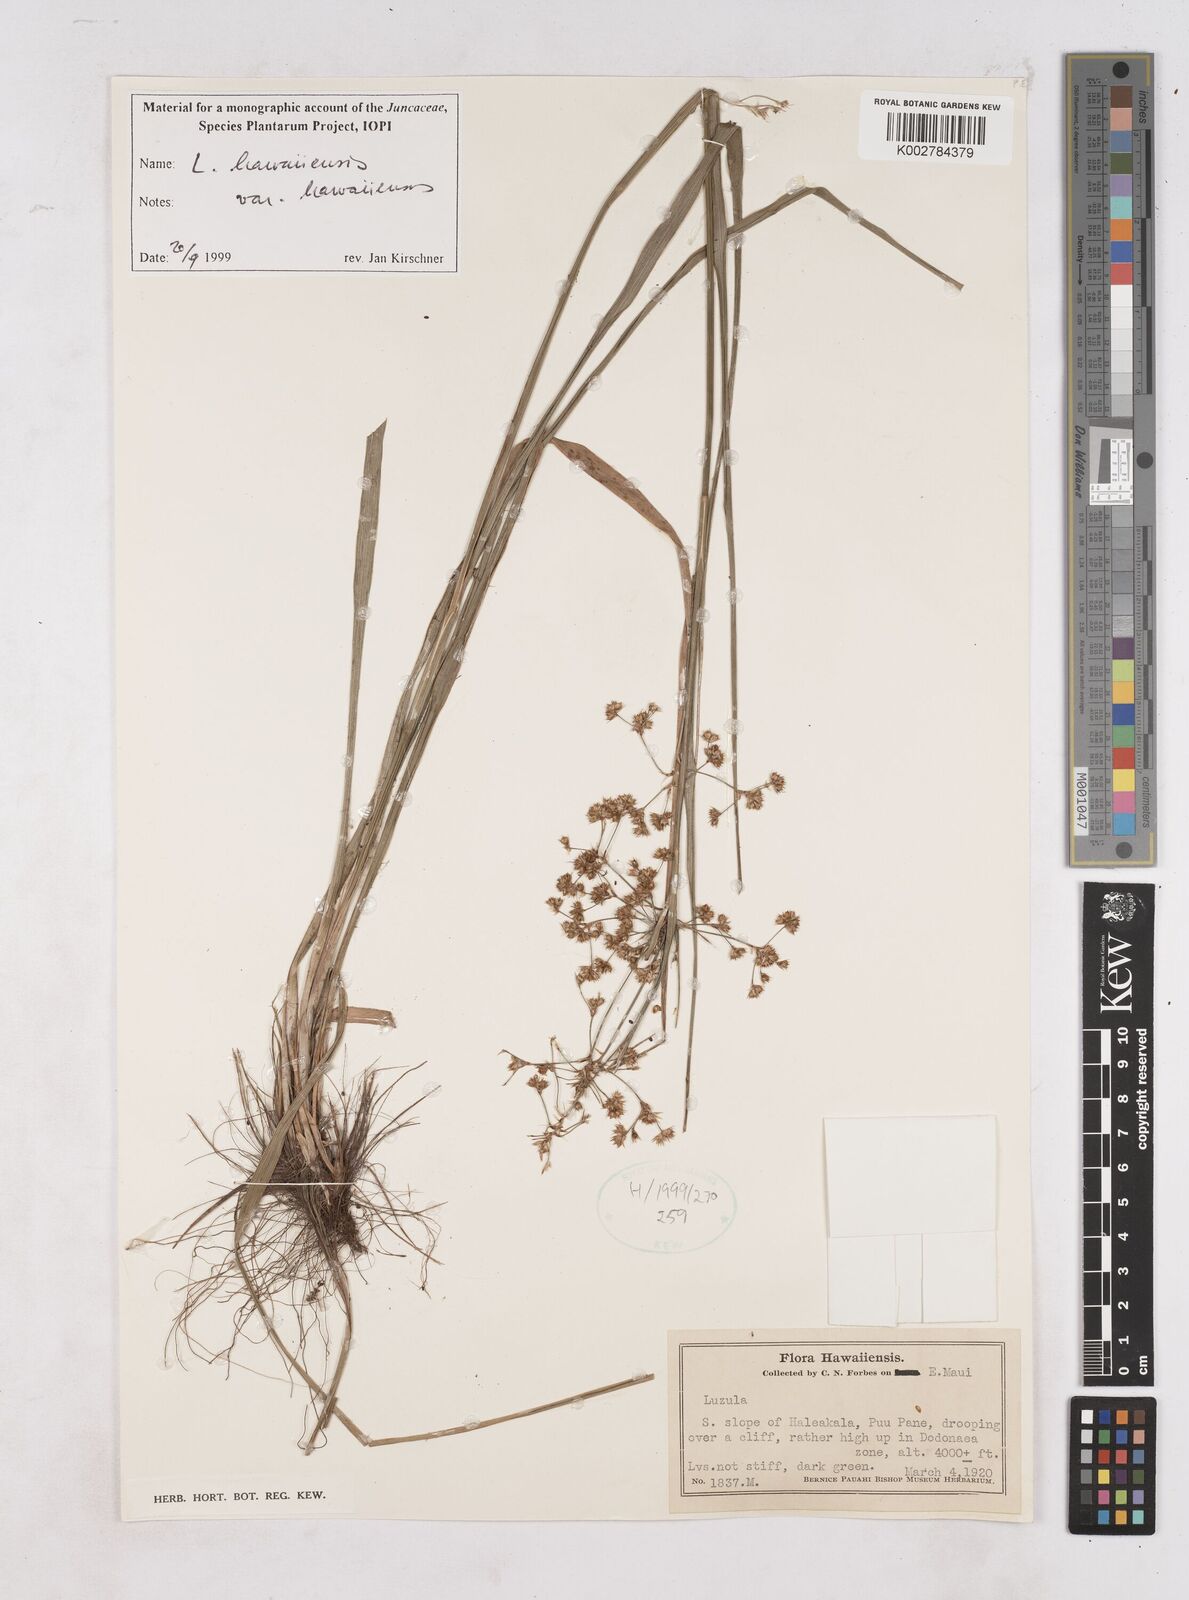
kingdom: Plantae
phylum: Tracheophyta
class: Liliopsida
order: Poales
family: Juncaceae
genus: Luzula
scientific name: Luzula campestris
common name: Field wood-rush
